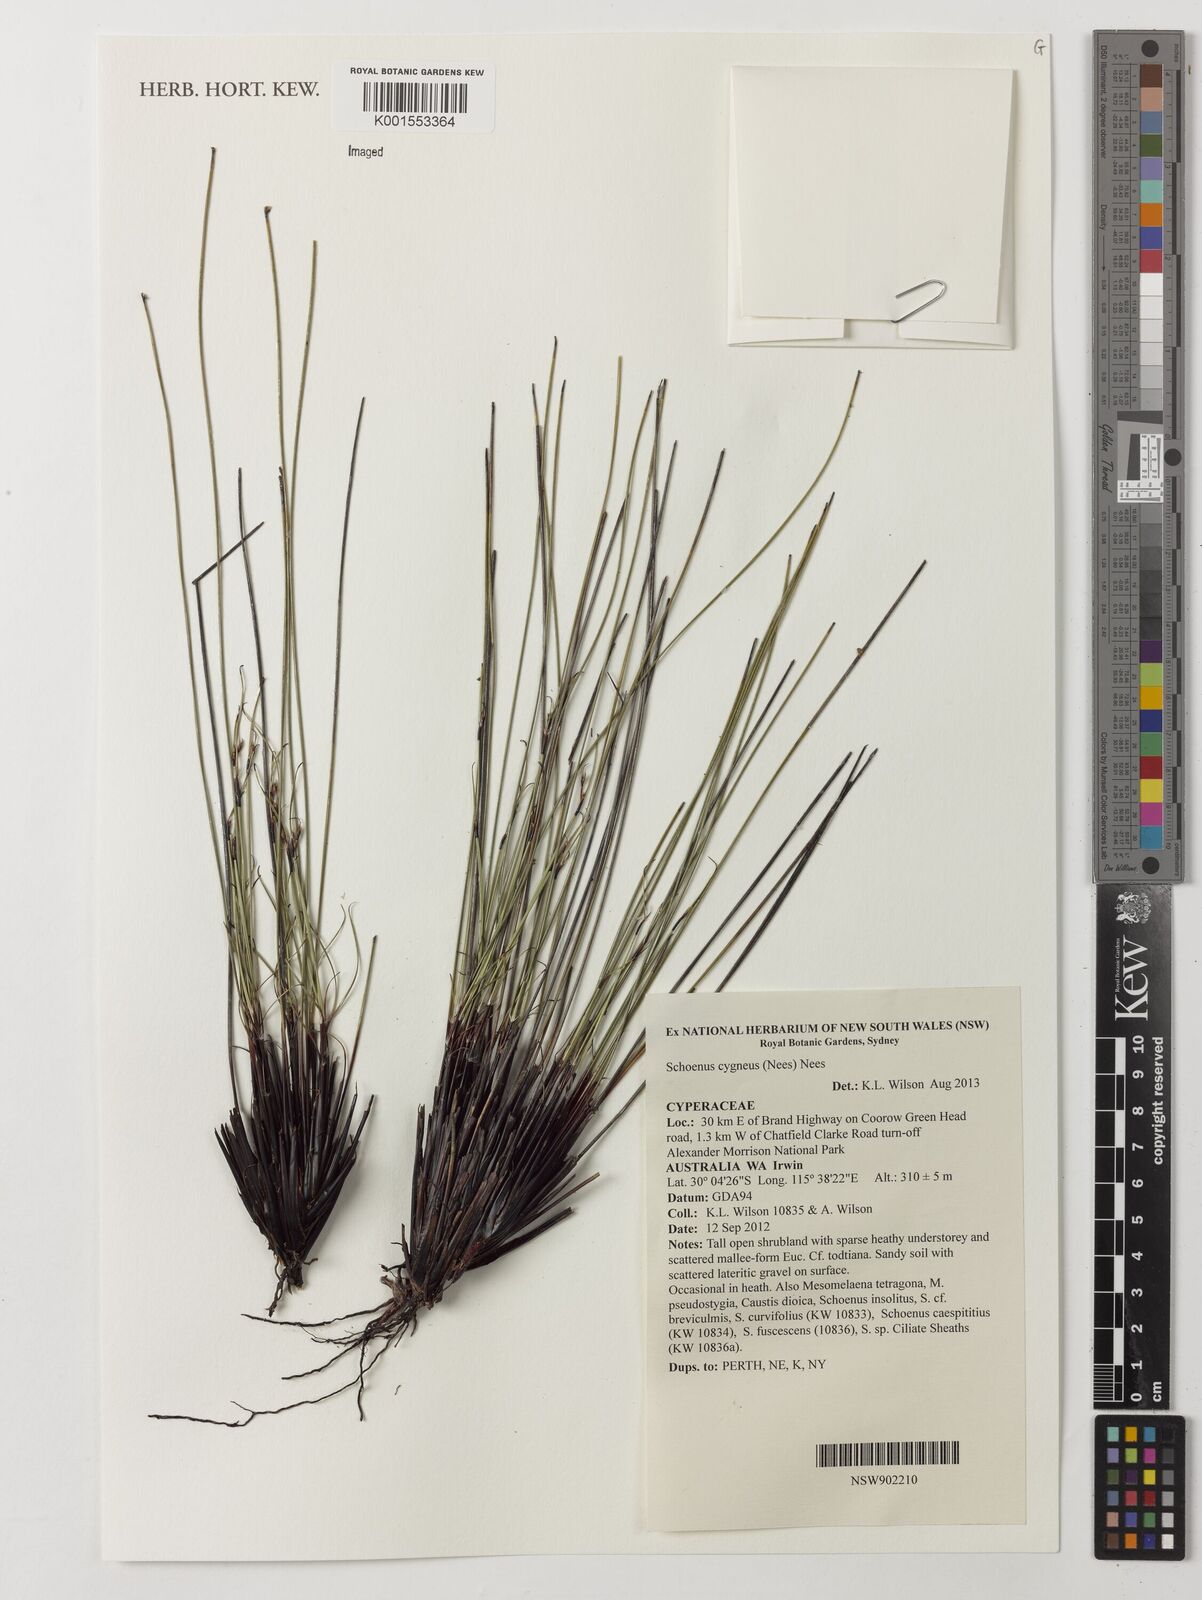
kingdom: Plantae
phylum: Tracheophyta
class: Liliopsida
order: Poales
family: Cyperaceae
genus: Schoenus
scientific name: Schoenus cygneus
